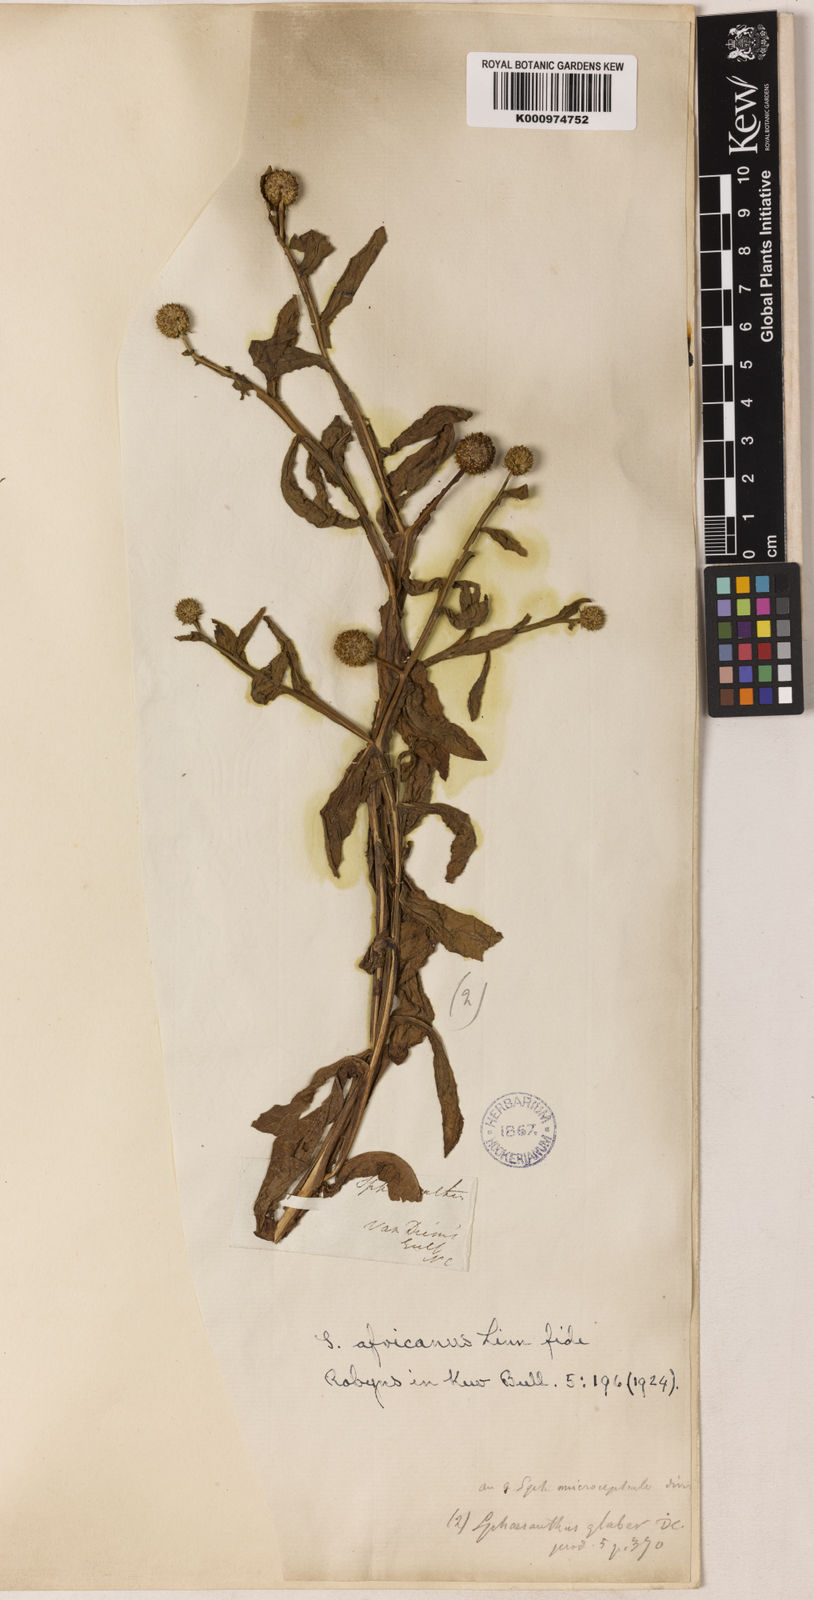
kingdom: Plantae
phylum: Tracheophyta
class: Magnoliopsida
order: Asterales
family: Asteraceae
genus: Sphaeranthus
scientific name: Sphaeranthus africanus
